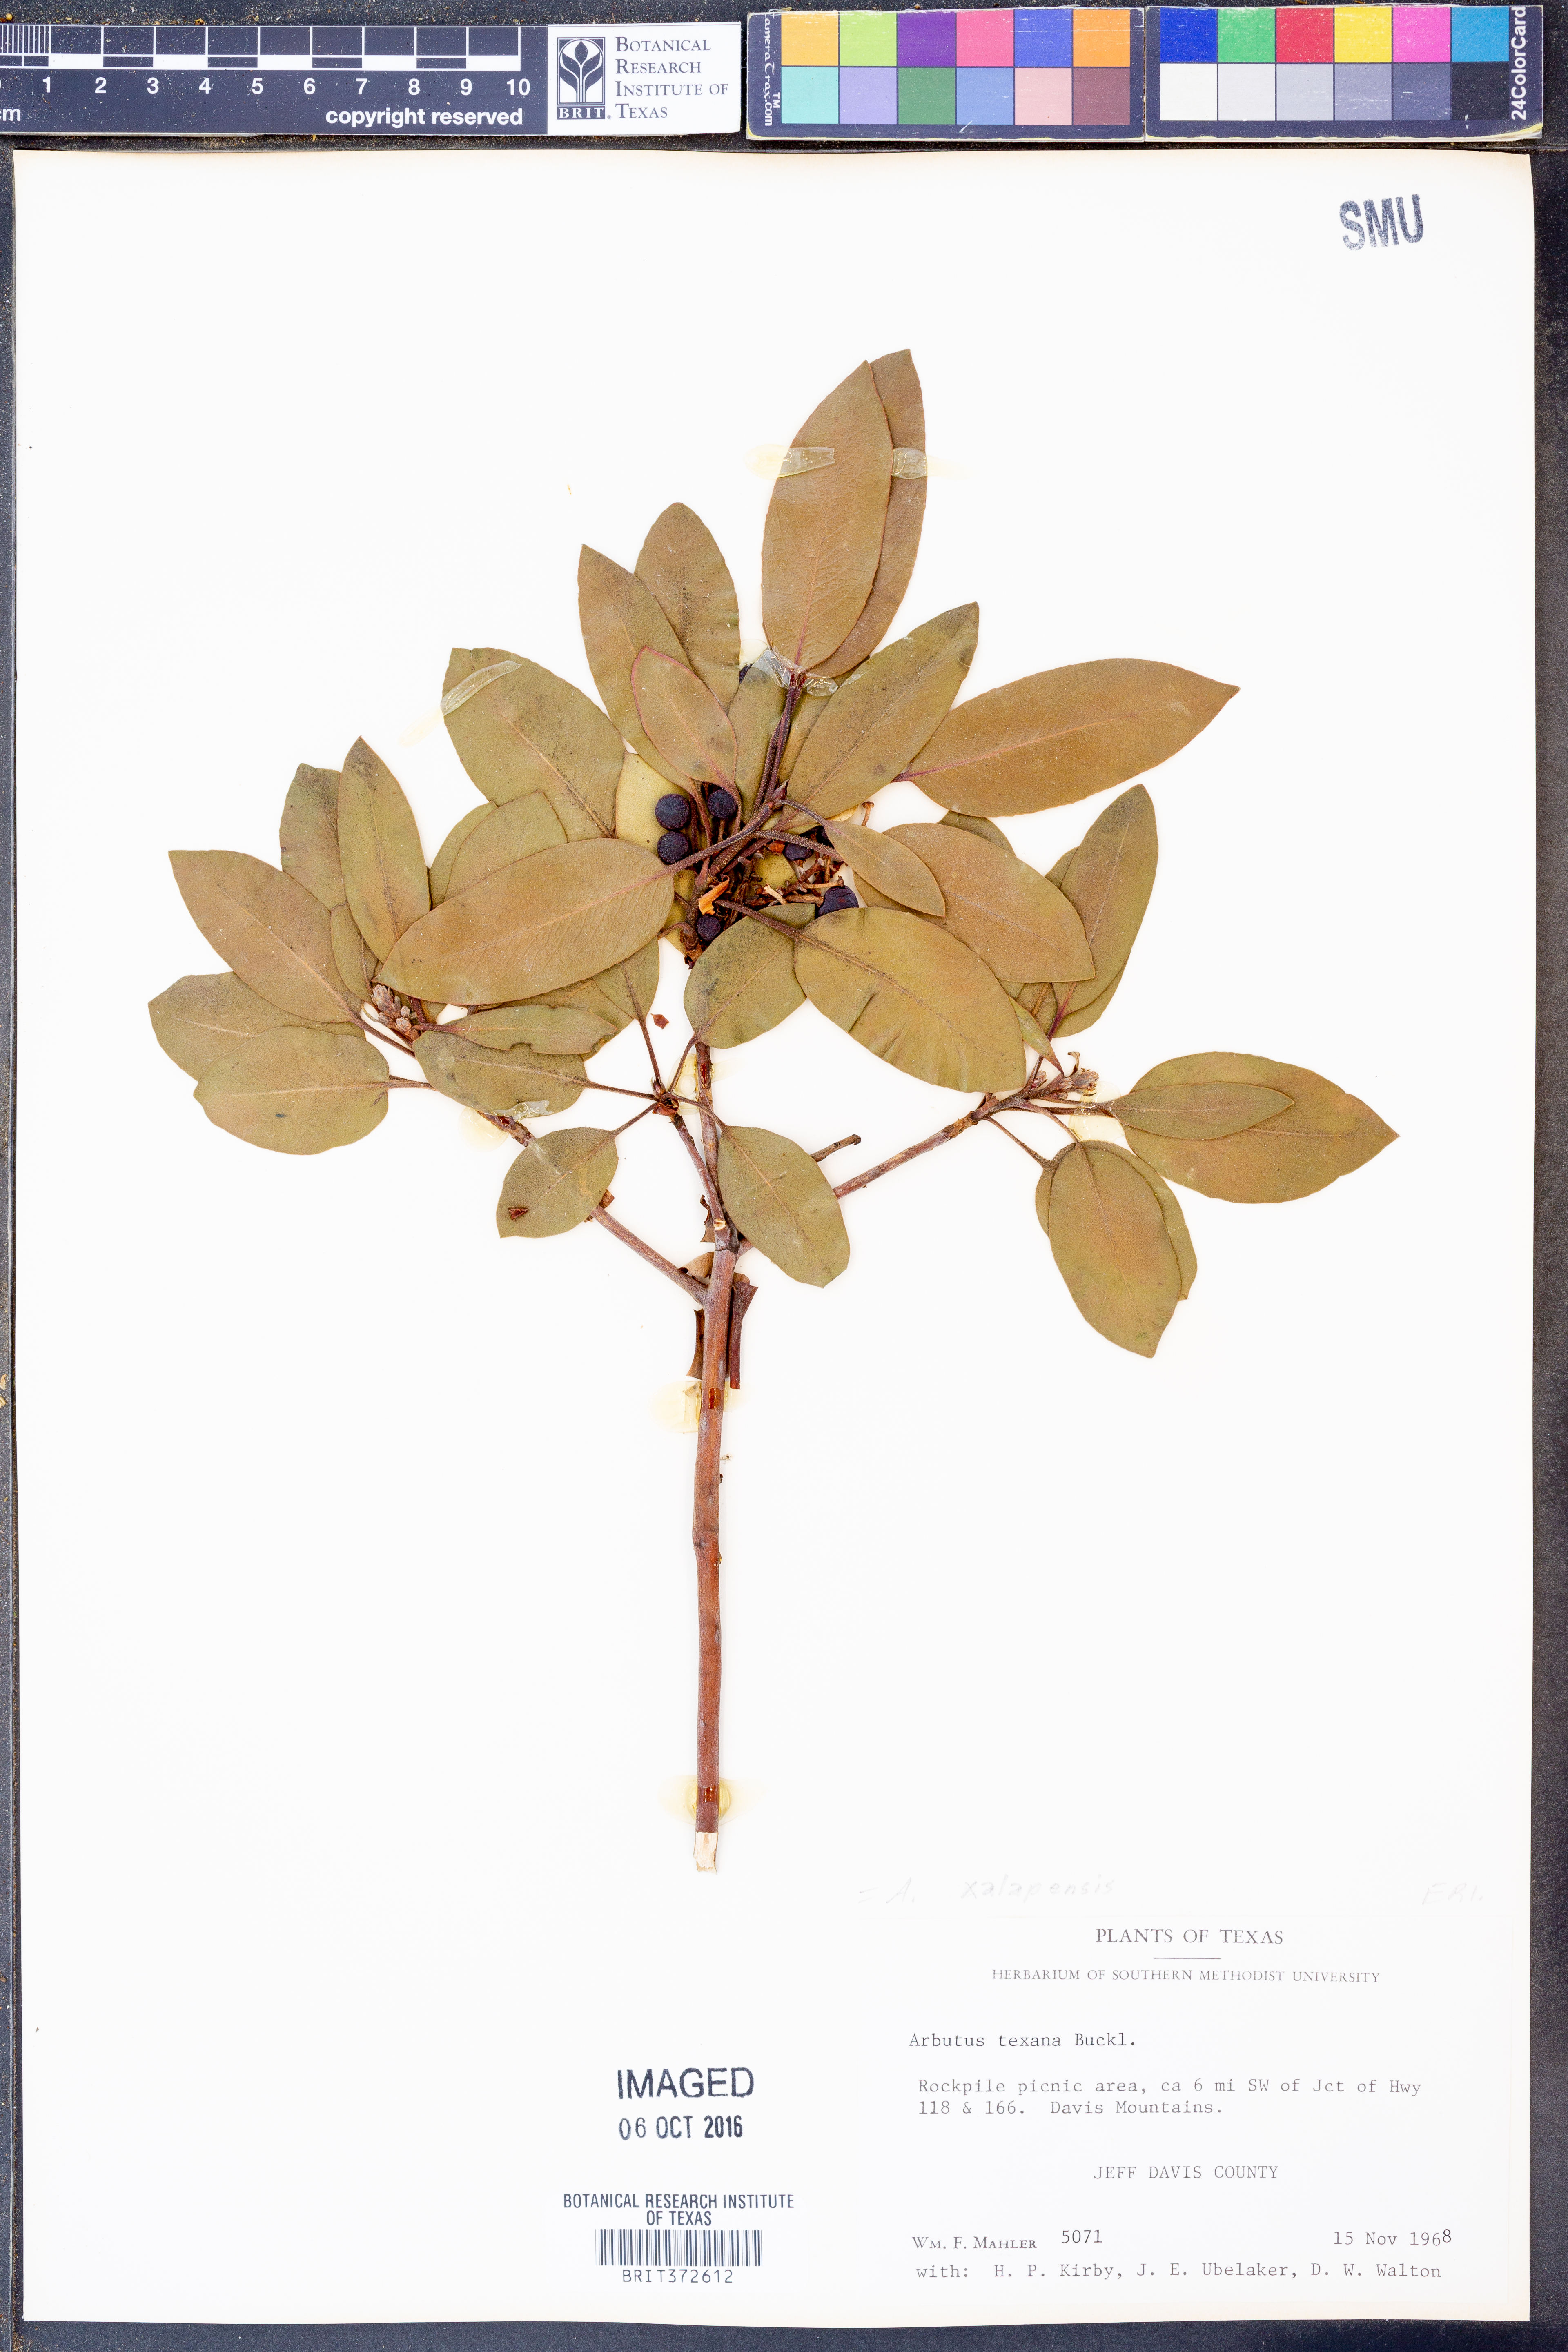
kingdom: Plantae
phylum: Tracheophyta
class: Magnoliopsida
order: Ericales
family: Ericaceae
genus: Arbutus
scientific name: Arbutus xalapensis
